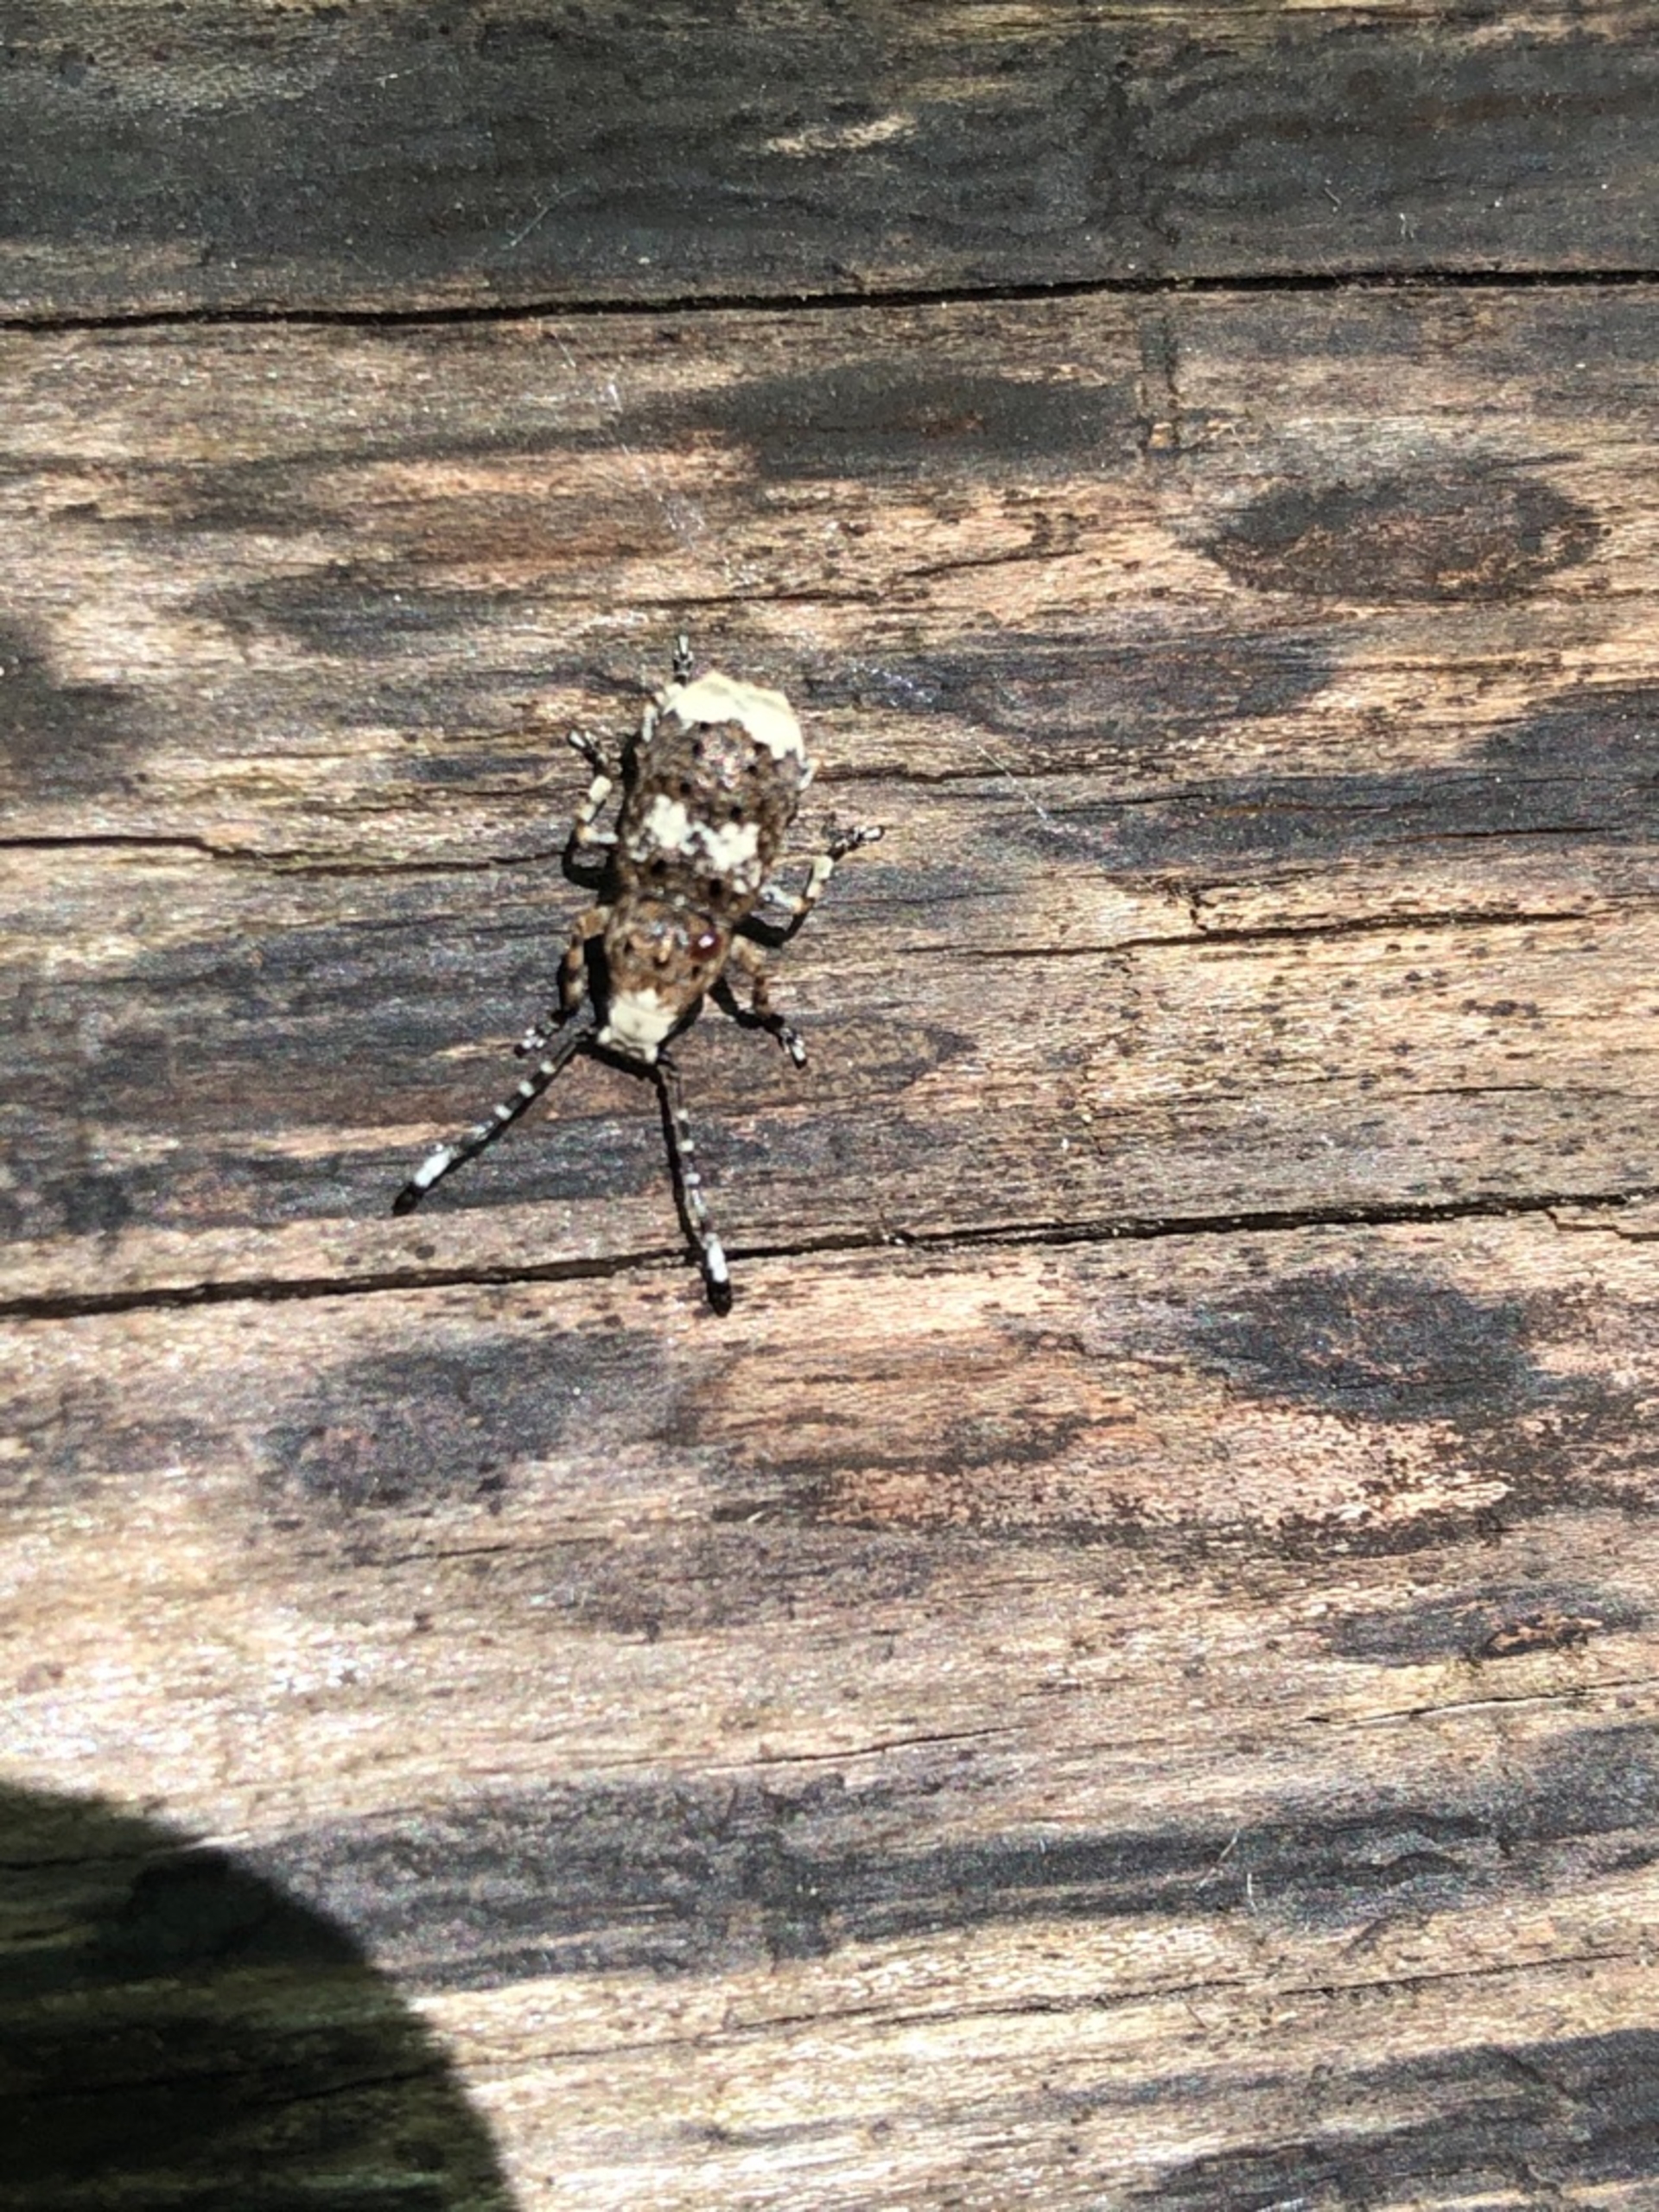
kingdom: Animalia
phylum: Arthropoda
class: Insecta
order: Coleoptera
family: Anthribidae
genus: Platystomos
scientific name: Platystomos albinus
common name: Hvidhovedet bredsnudebille
